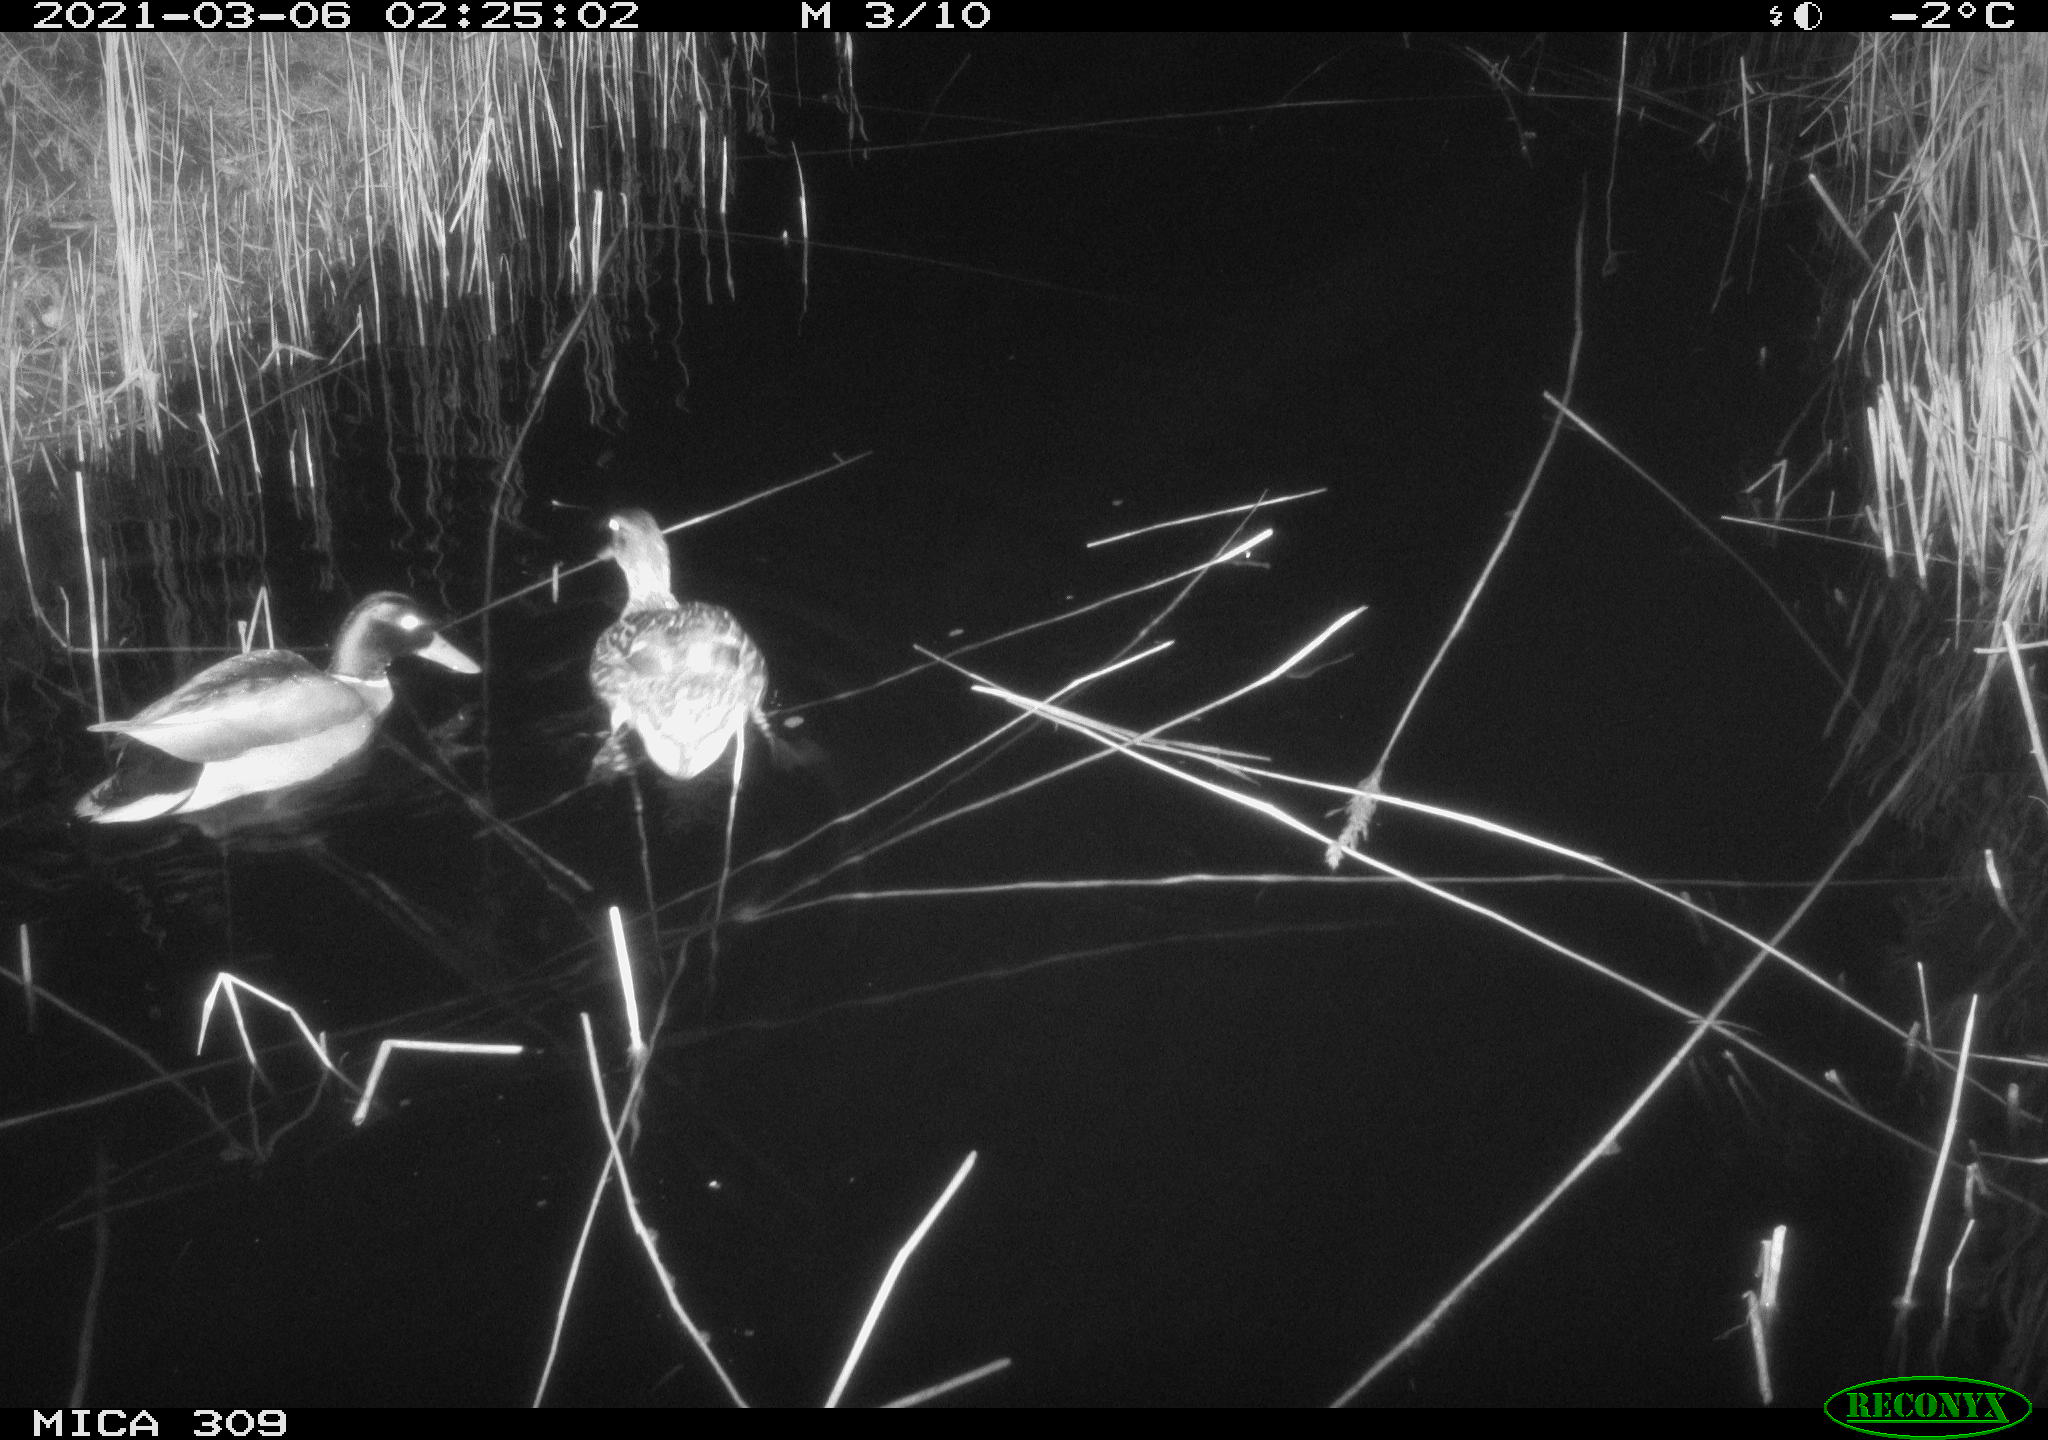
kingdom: Animalia
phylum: Chordata
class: Aves
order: Anseriformes
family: Anatidae
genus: Anas
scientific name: Anas platyrhynchos
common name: Mallard
